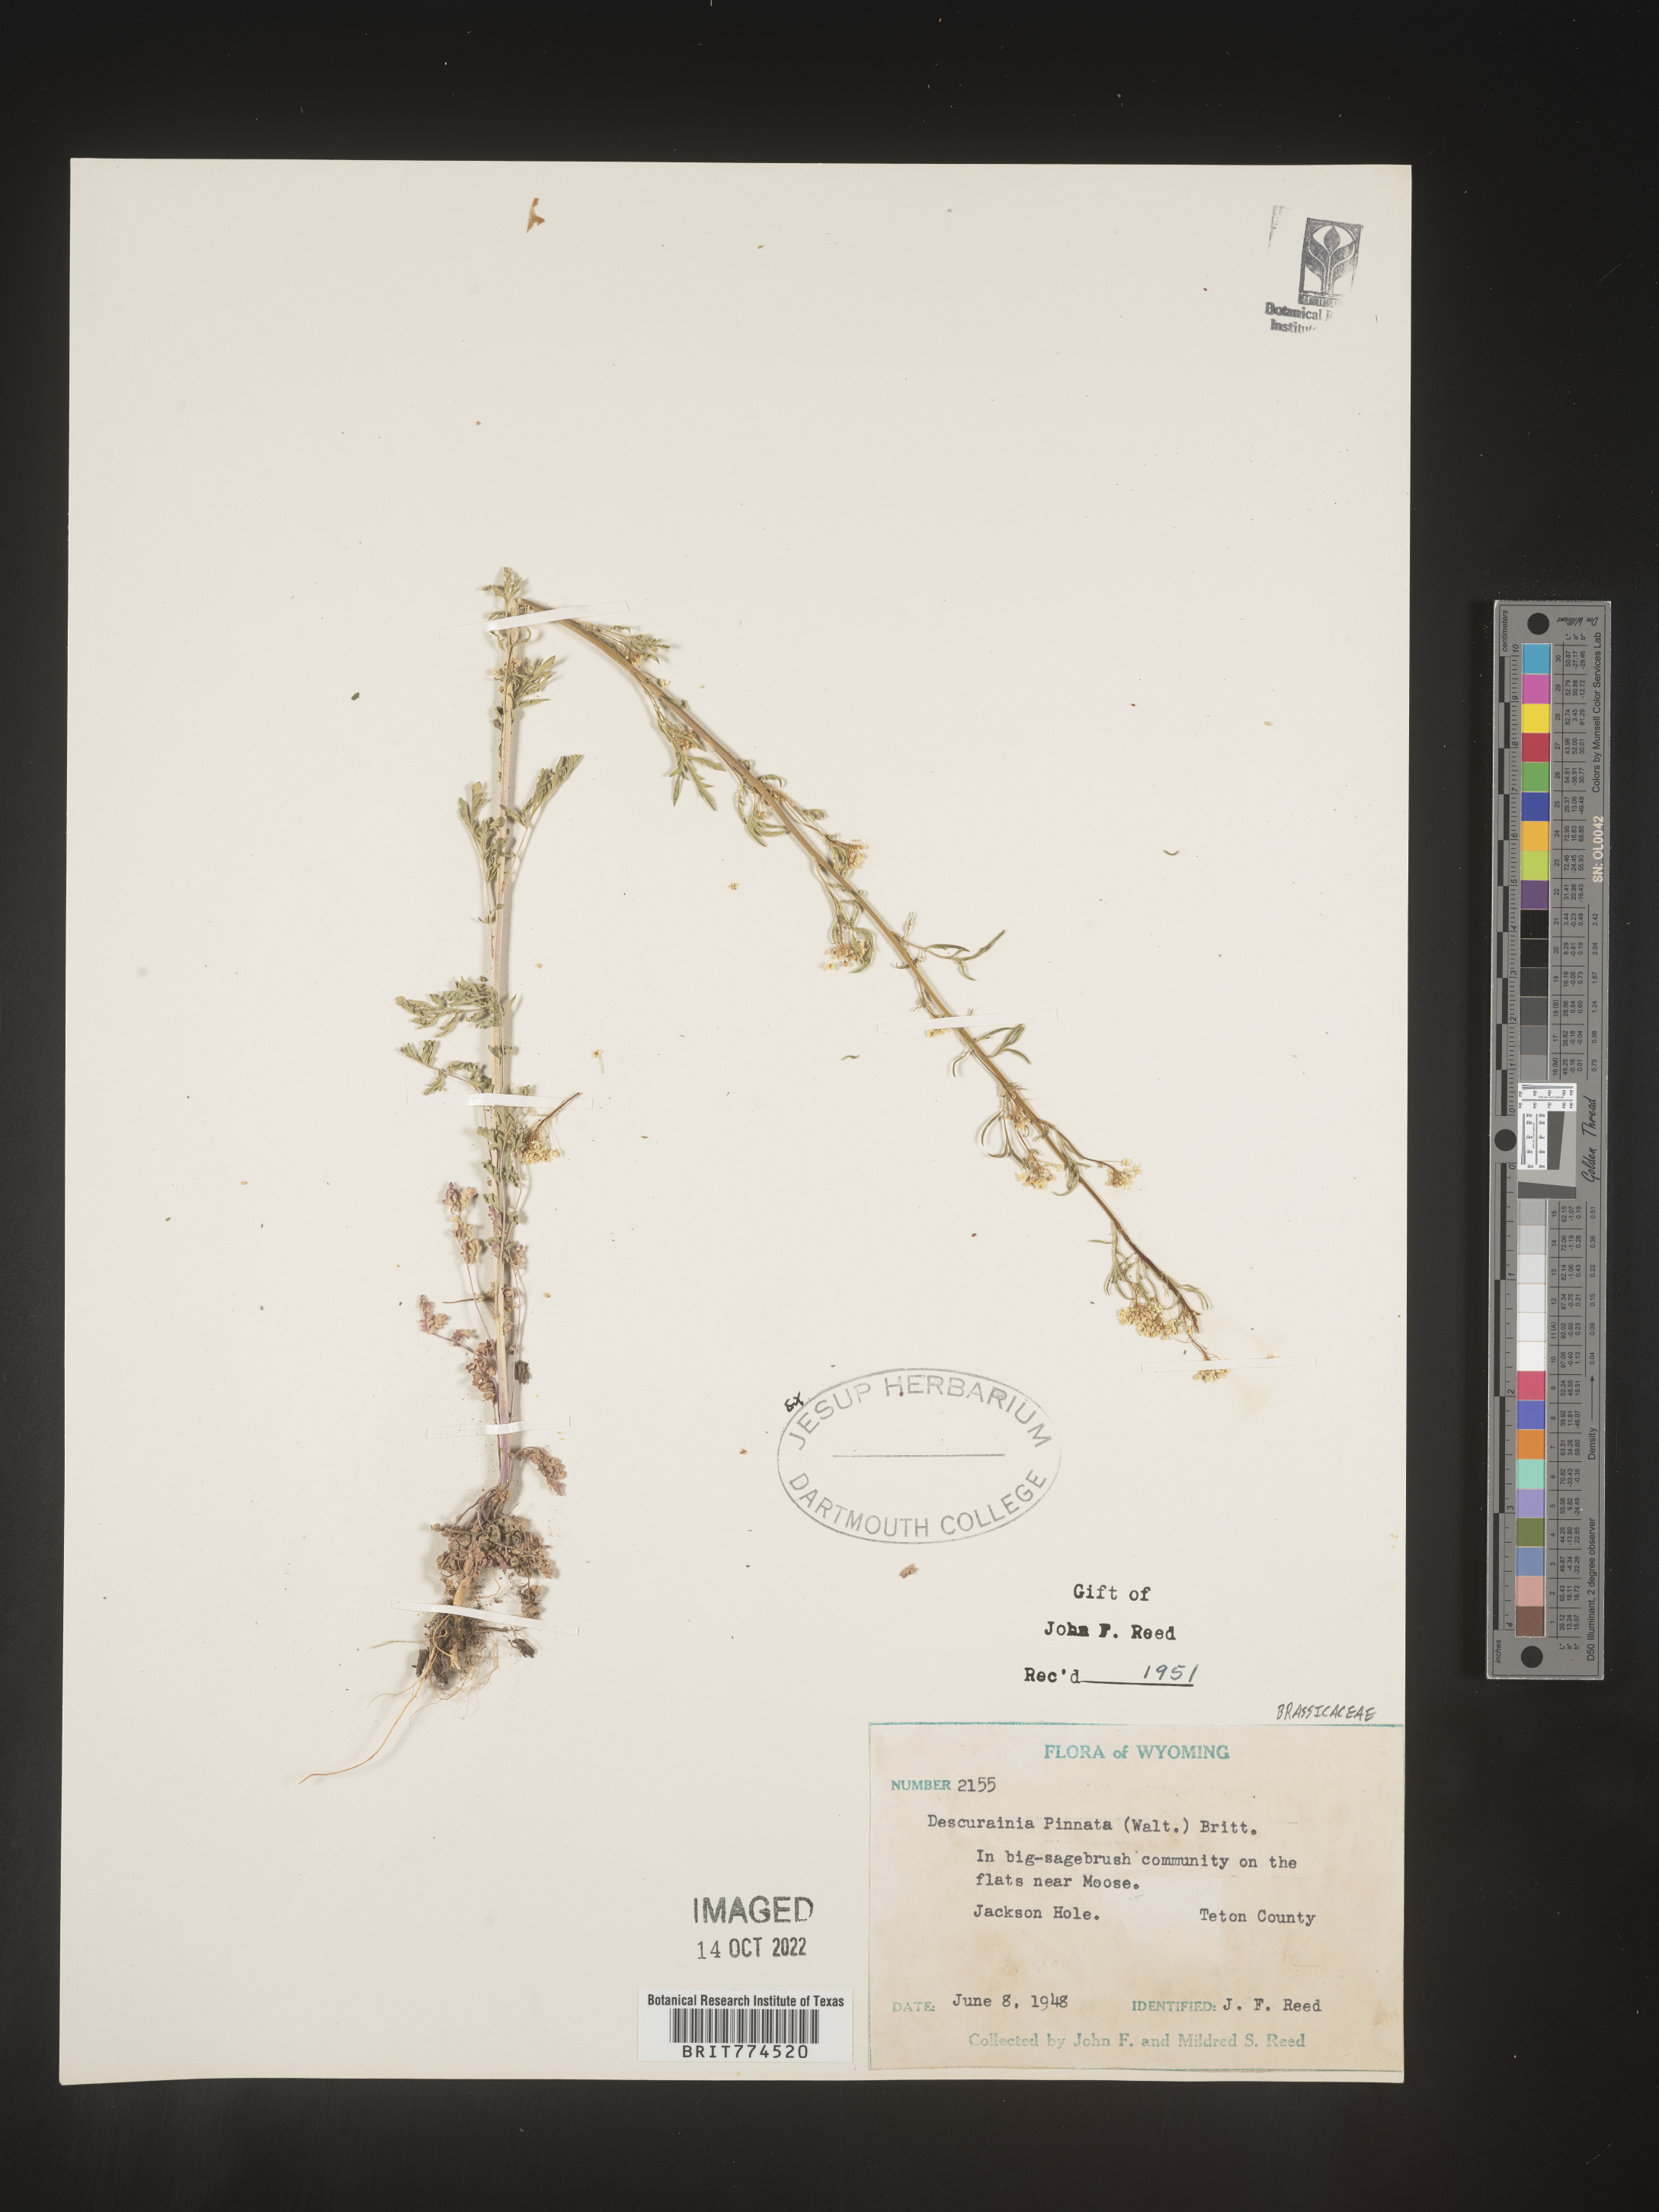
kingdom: Plantae
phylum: Tracheophyta
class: Magnoliopsida
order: Brassicales
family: Brassicaceae
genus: Descurainia
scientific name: Descurainia pinnata
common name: Western tansy mustard
